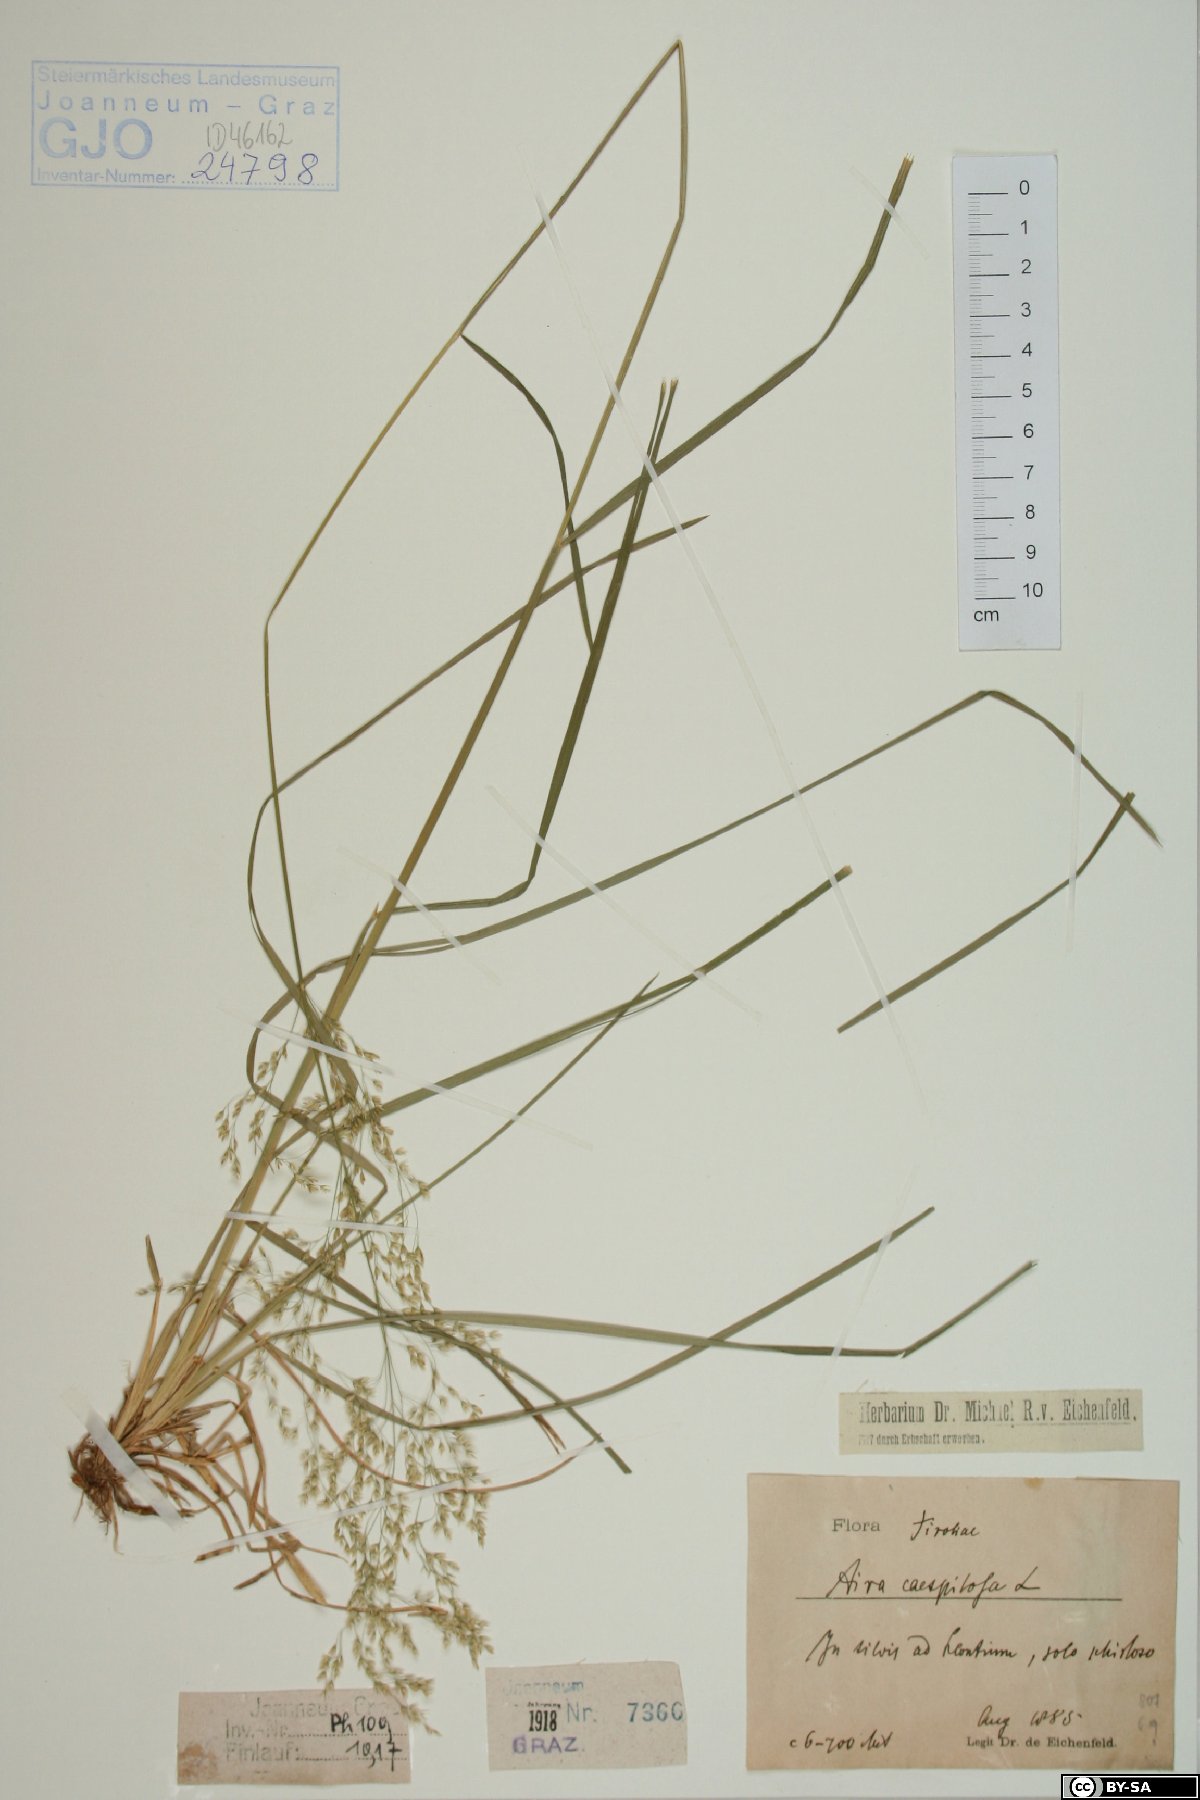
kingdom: Plantae
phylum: Tracheophyta
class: Liliopsida
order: Poales
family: Poaceae
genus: Deschampsia
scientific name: Deschampsia cespitosa
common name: Tufted hair-grass
